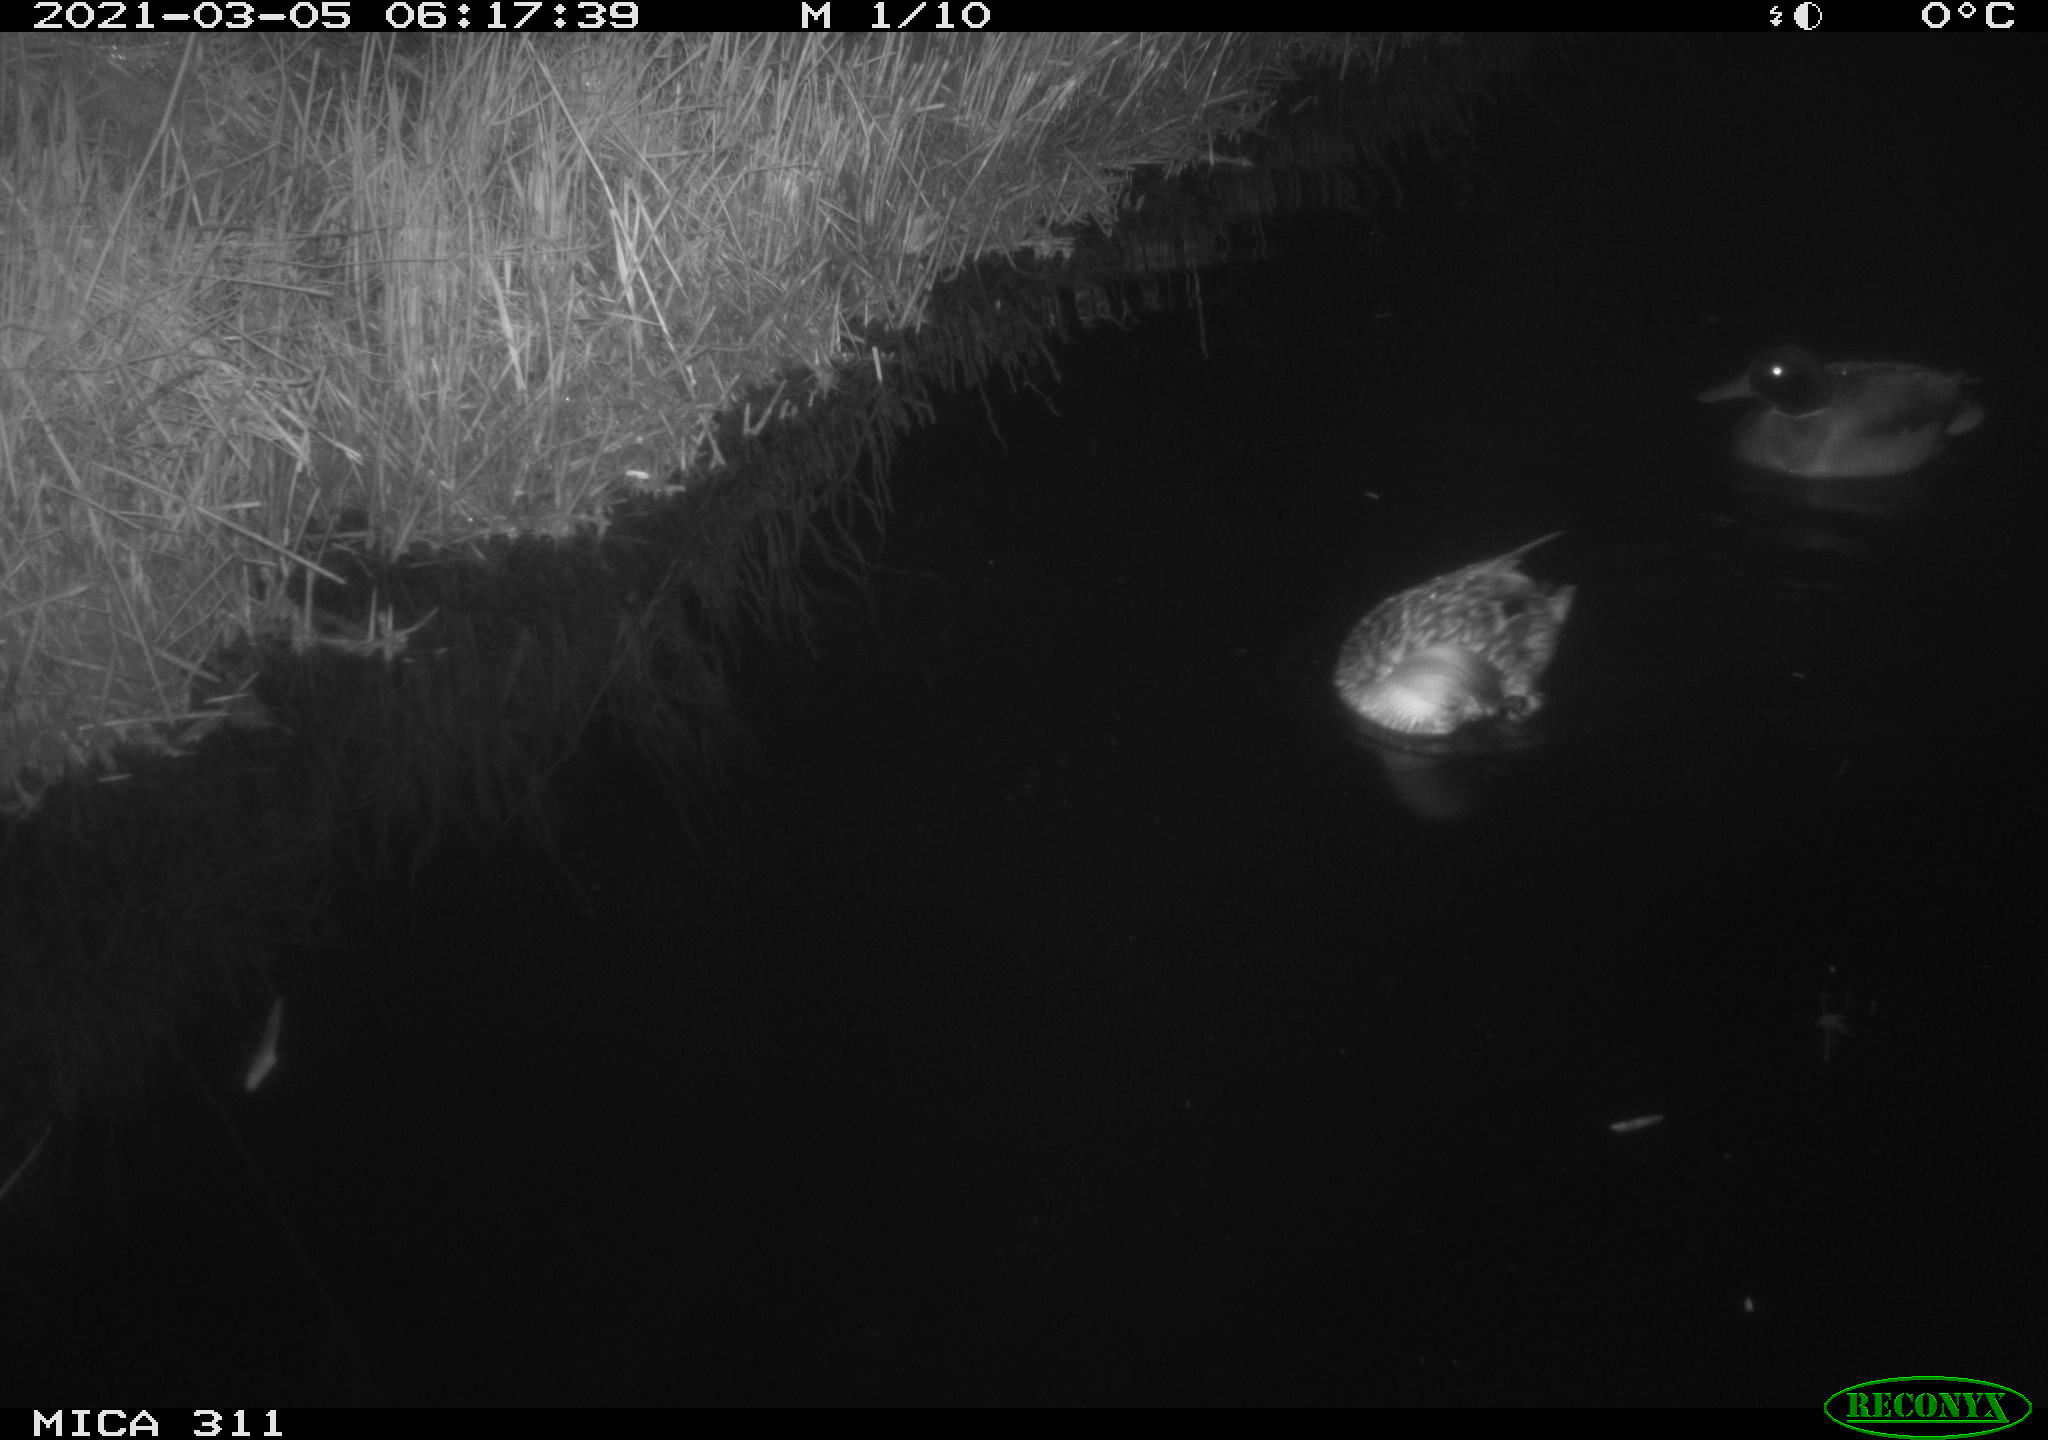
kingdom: Animalia
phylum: Chordata
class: Aves
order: Anseriformes
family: Anatidae
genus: Anas
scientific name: Anas platyrhynchos
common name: Mallard
